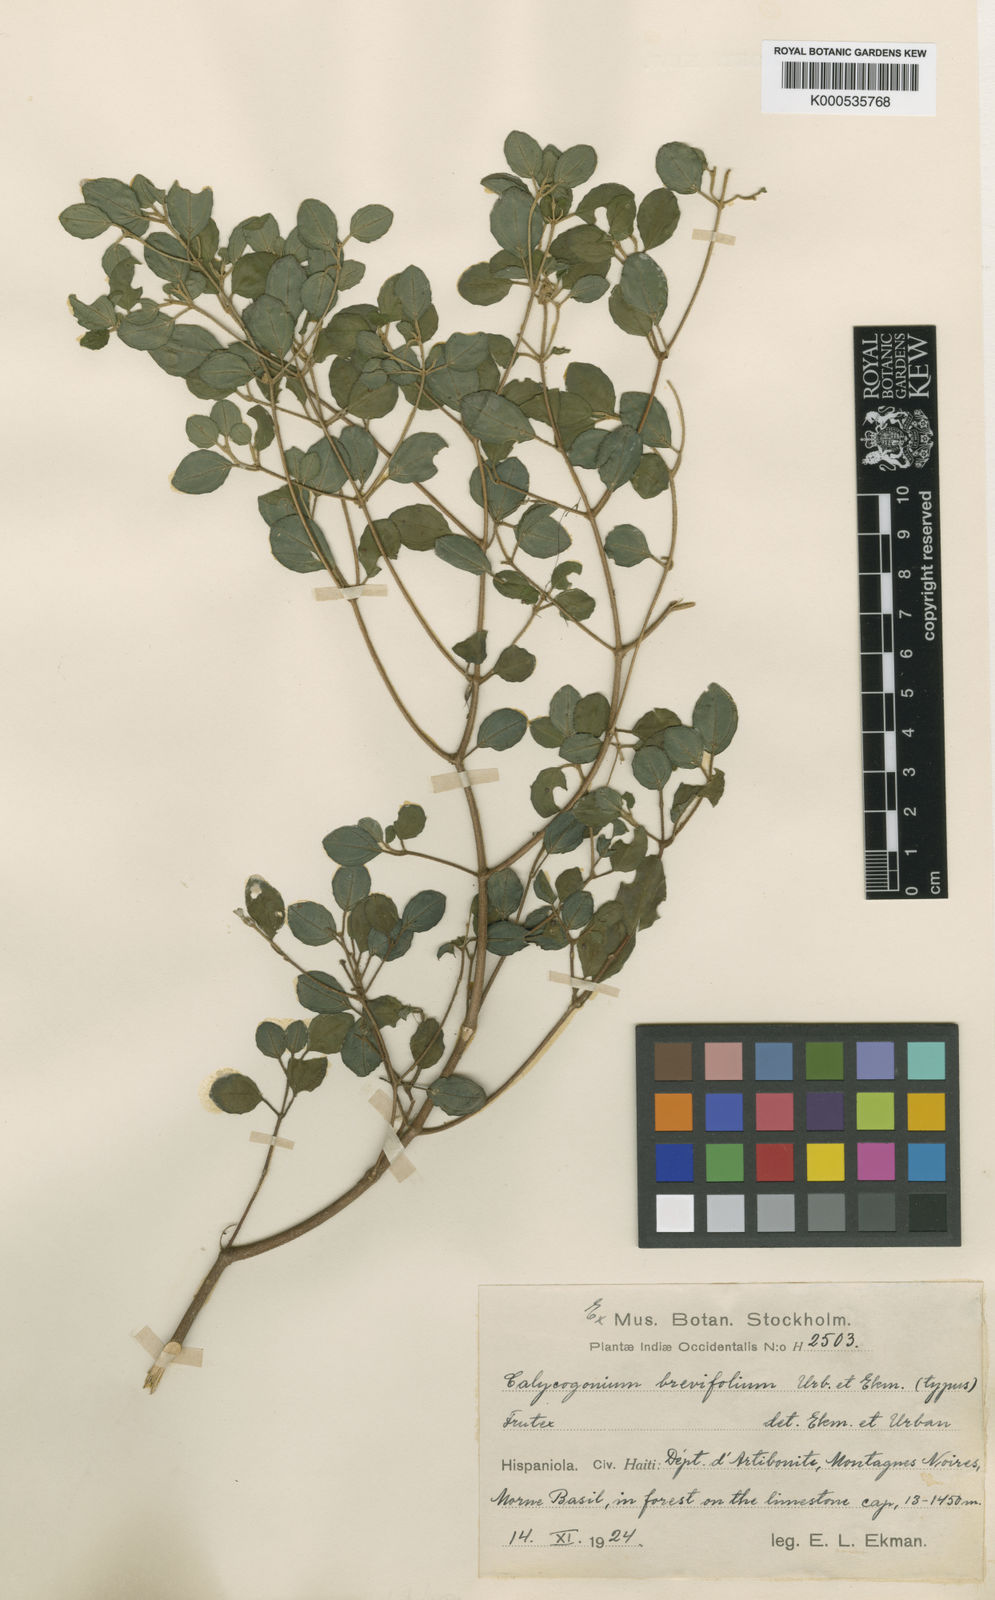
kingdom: Plantae
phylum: Tracheophyta
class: Magnoliopsida
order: Myrtales
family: Melastomataceae
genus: Miconia
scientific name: Miconia brevifolia
